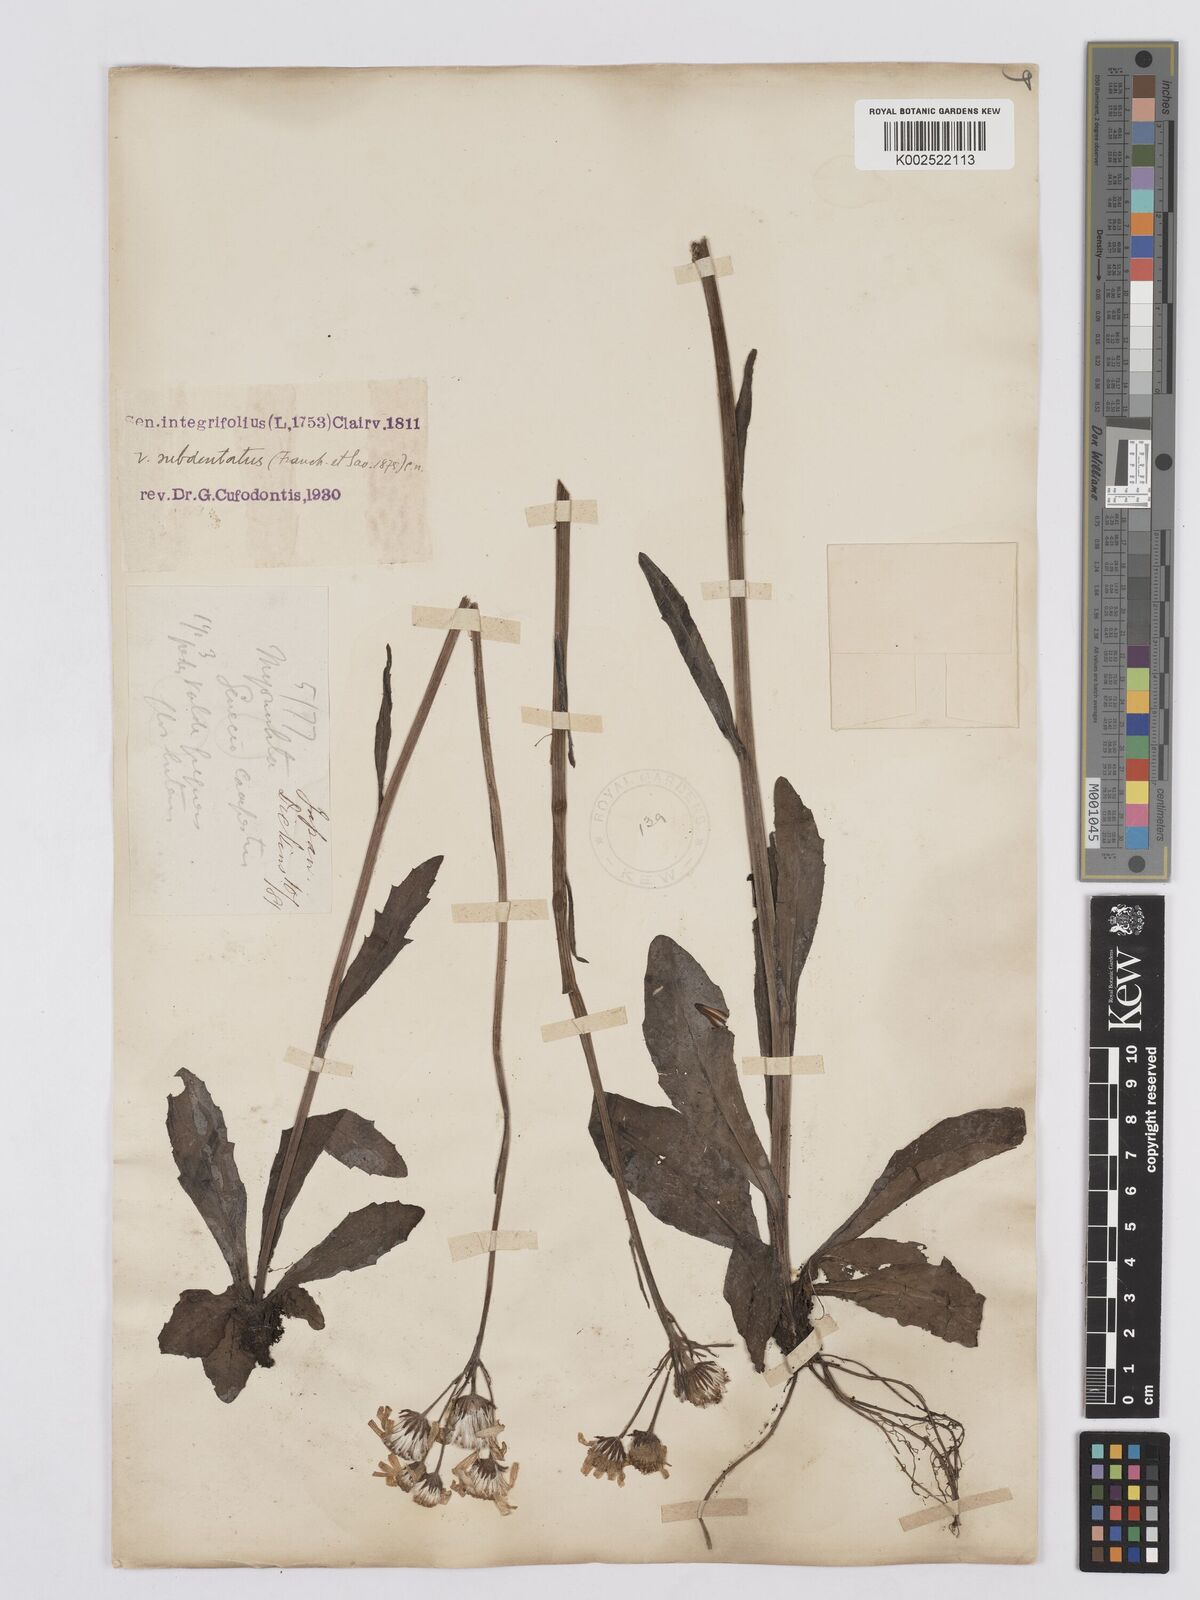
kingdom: Plantae
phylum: Tracheophyta
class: Magnoliopsida
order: Asterales
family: Asteraceae
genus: Tephroseris
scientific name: Tephroseris kirilowii
